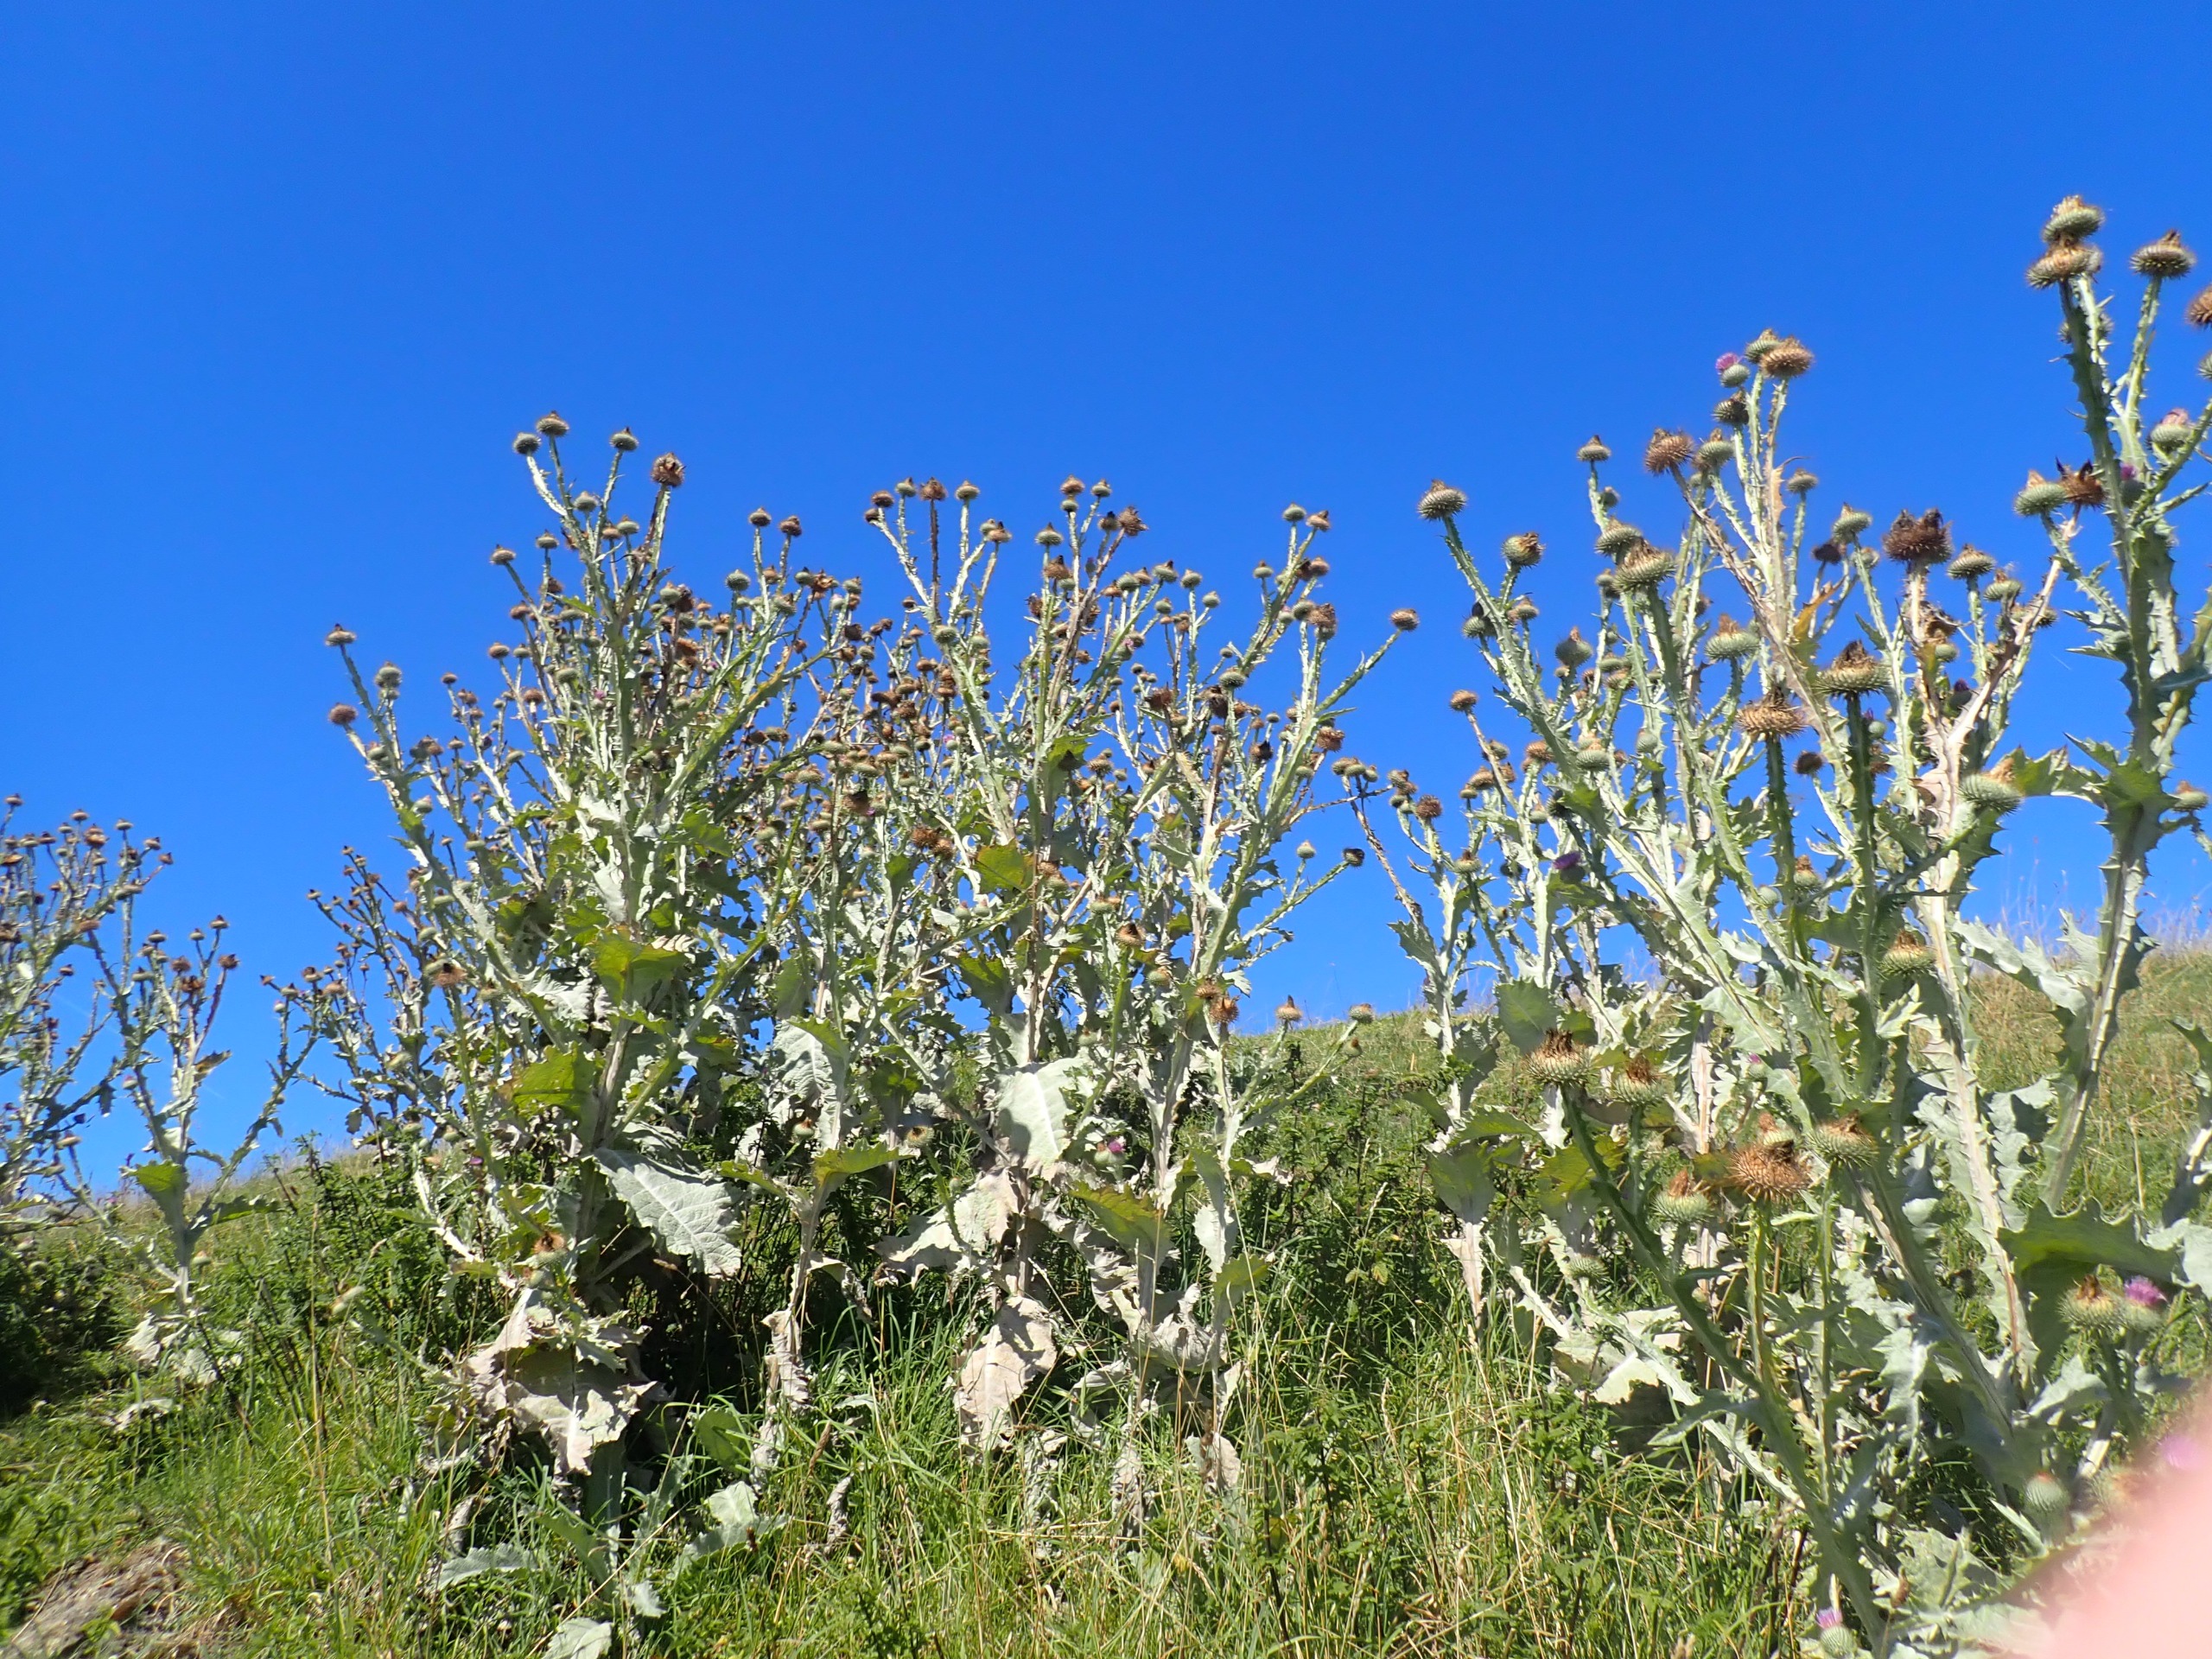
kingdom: Plantae
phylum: Tracheophyta
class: Magnoliopsida
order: Asterales
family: Asteraceae
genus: Onopordum
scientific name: Onopordum acanthium
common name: Æselfoder
